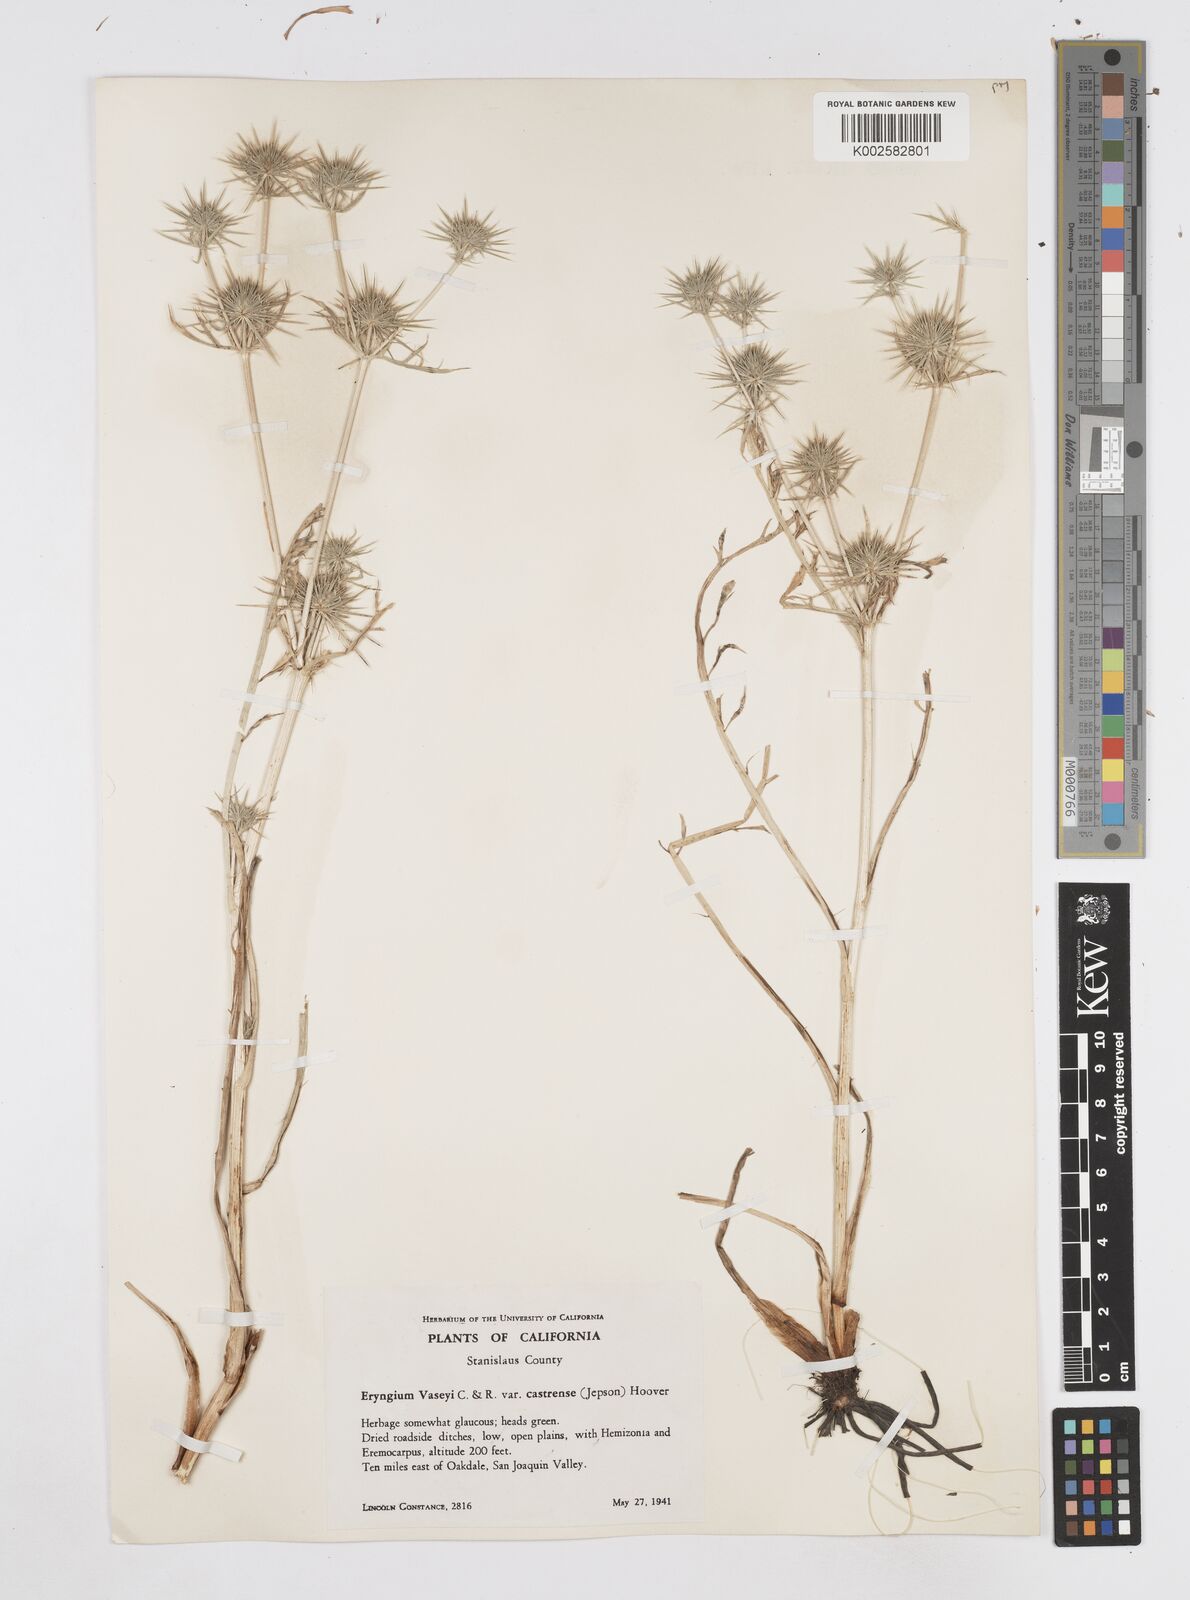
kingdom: Plantae
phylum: Tracheophyta
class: Magnoliopsida
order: Apiales
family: Apiaceae
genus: Eryngium
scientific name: Eryngium castrense
